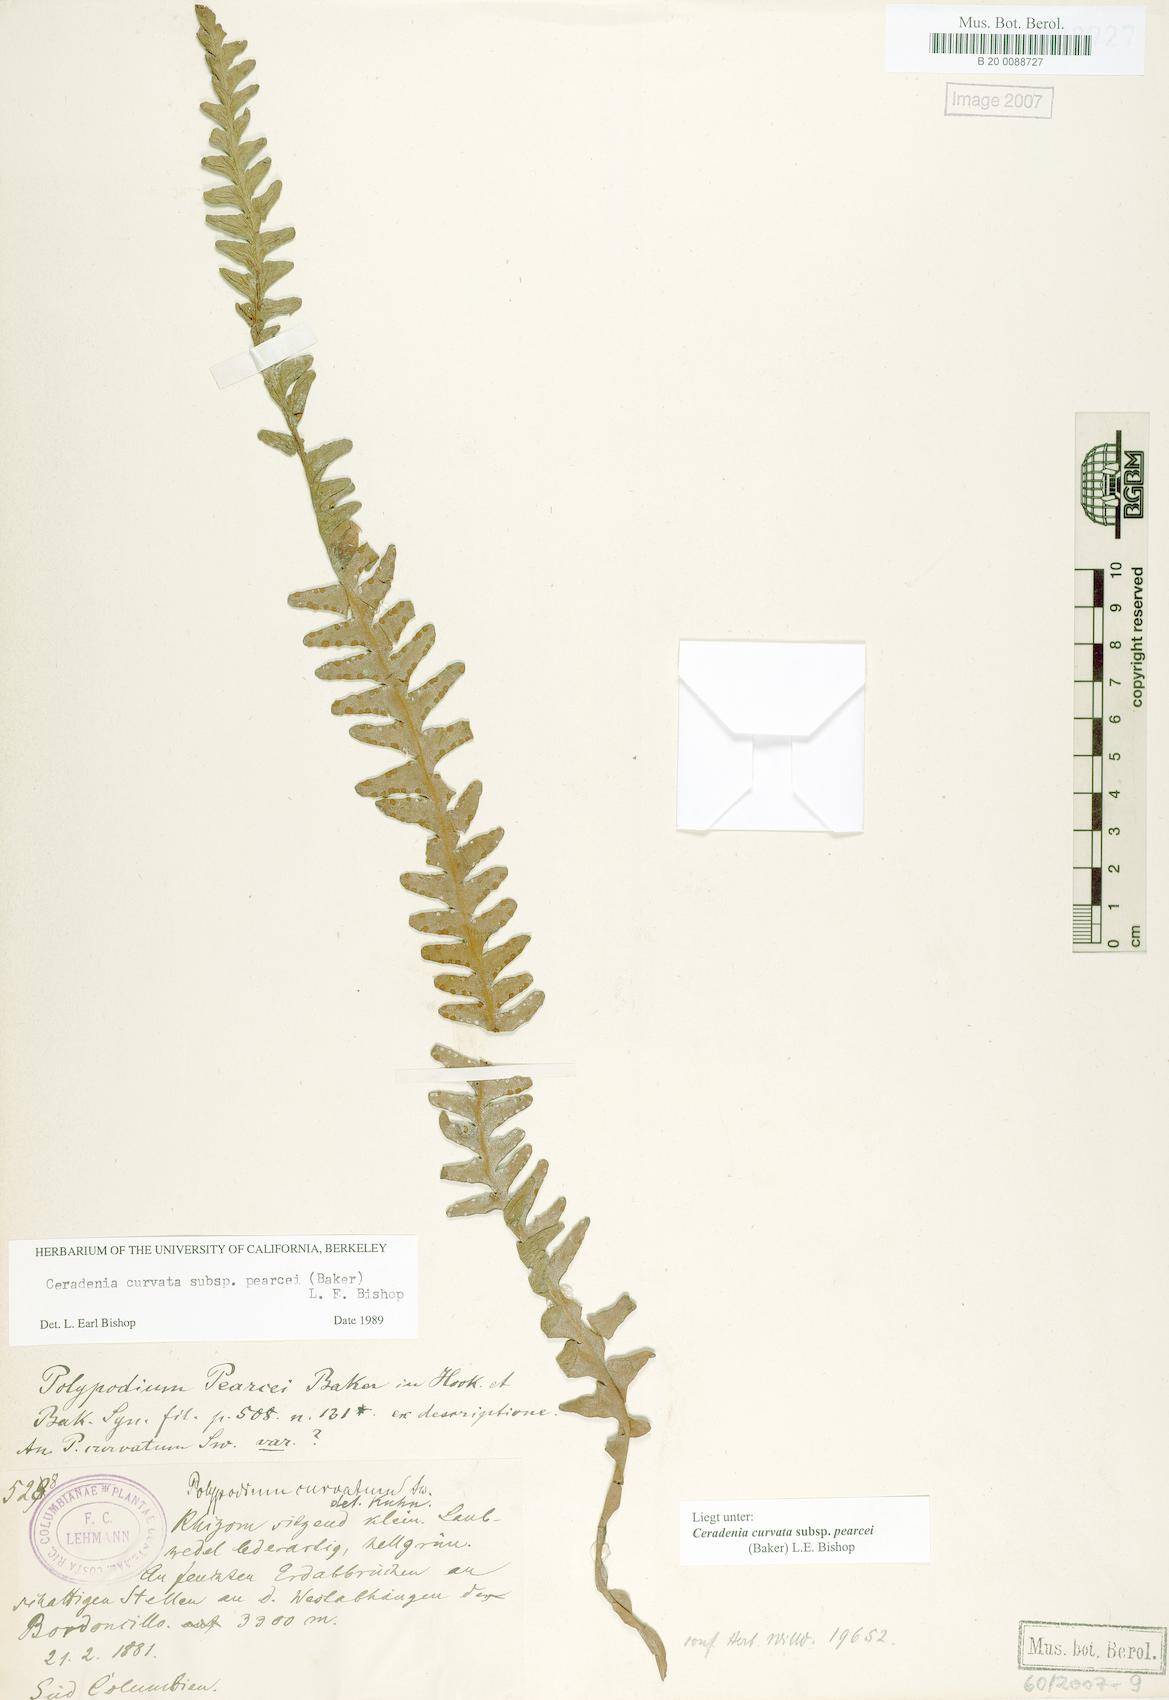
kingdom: Plantae
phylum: Tracheophyta
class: Polypodiopsida
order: Polypodiales
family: Polypodiaceae
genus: Ceradenia
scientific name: Ceradenia pearcei
